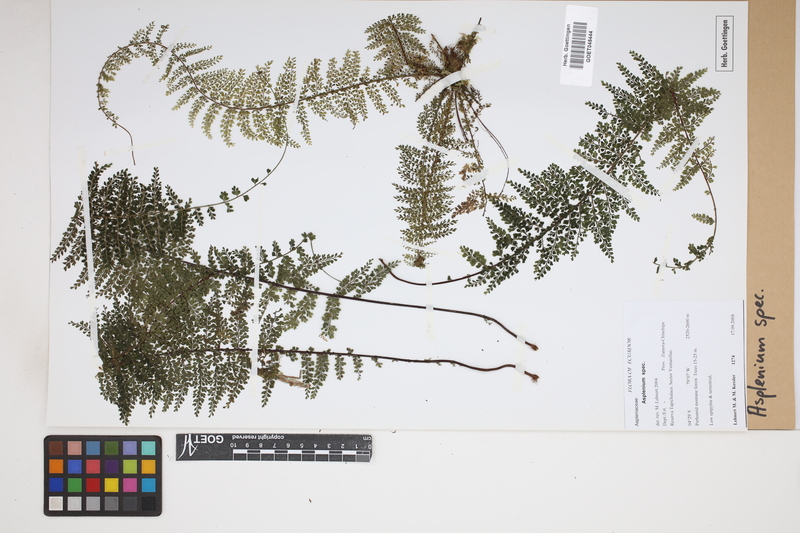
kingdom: Plantae
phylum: Tracheophyta
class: Polypodiopsida
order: Polypodiales
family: Aspleniaceae
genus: Asplenium
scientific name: Asplenium
